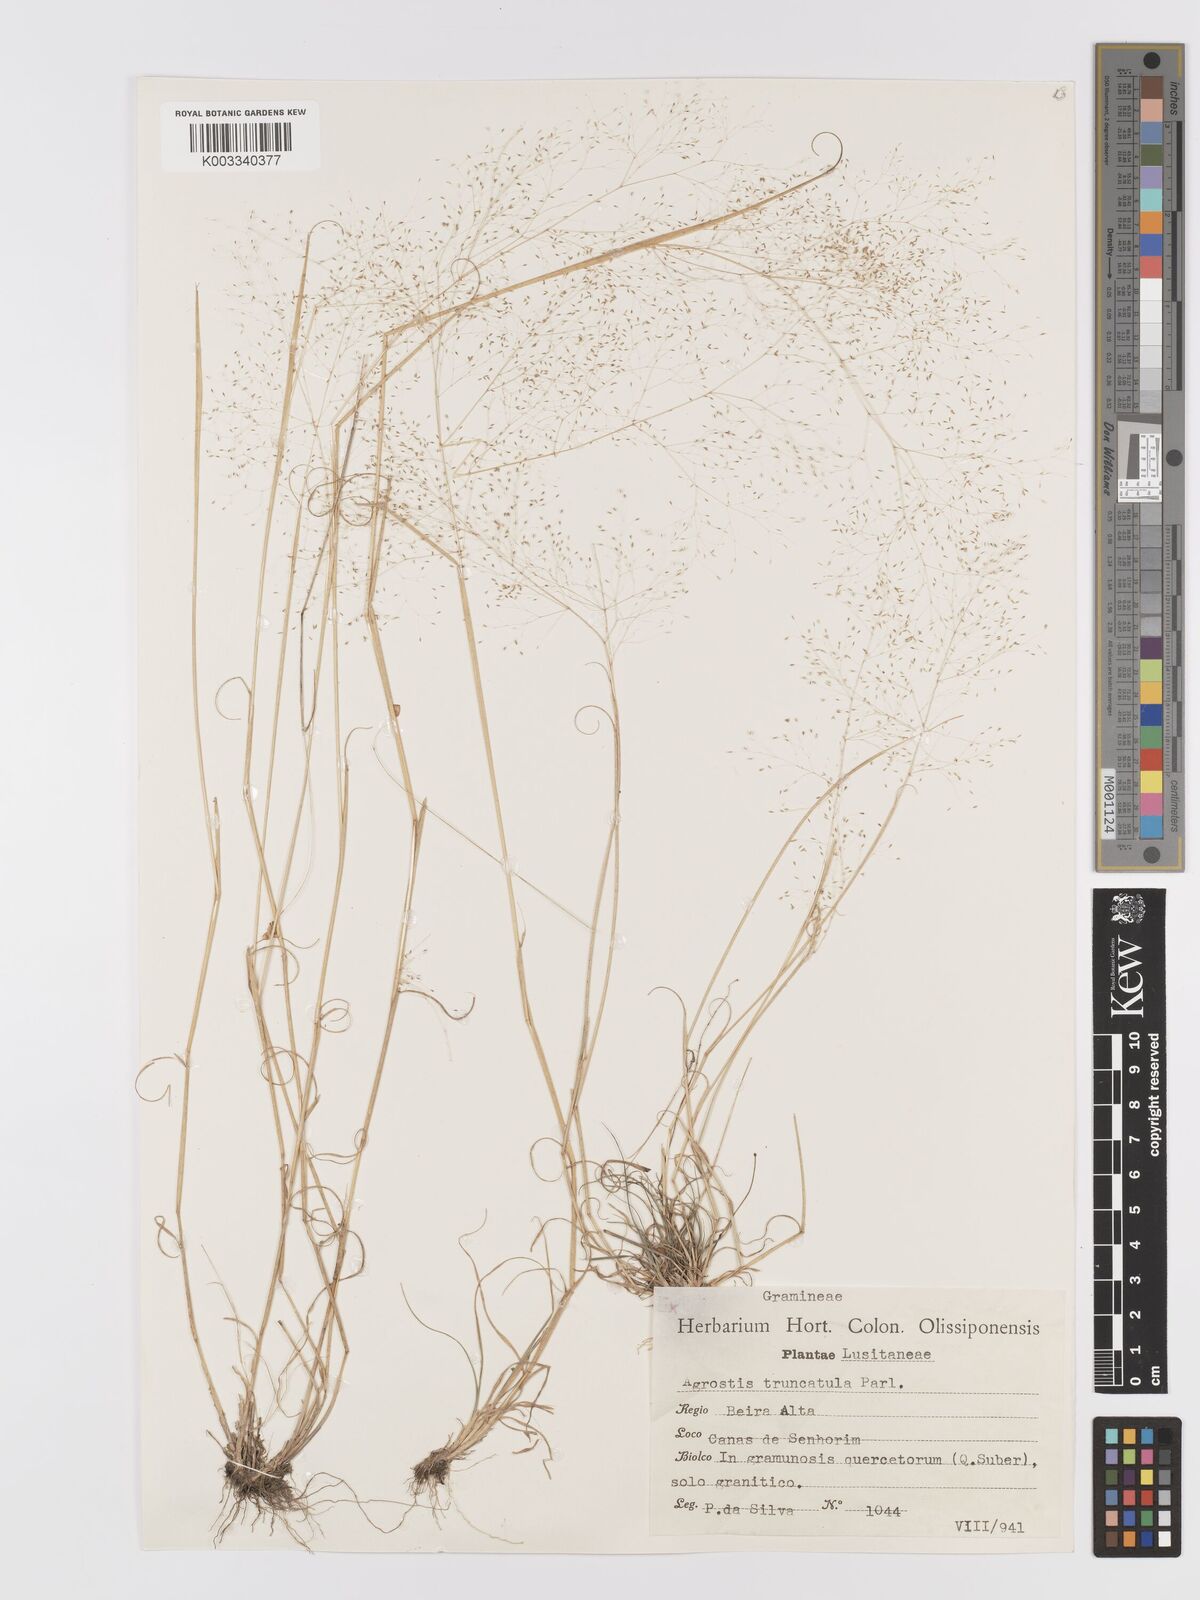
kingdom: Plantae
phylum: Tracheophyta
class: Liliopsida
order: Poales
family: Poaceae
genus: Agrostis
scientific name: Agrostis castellana
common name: Highland bent
